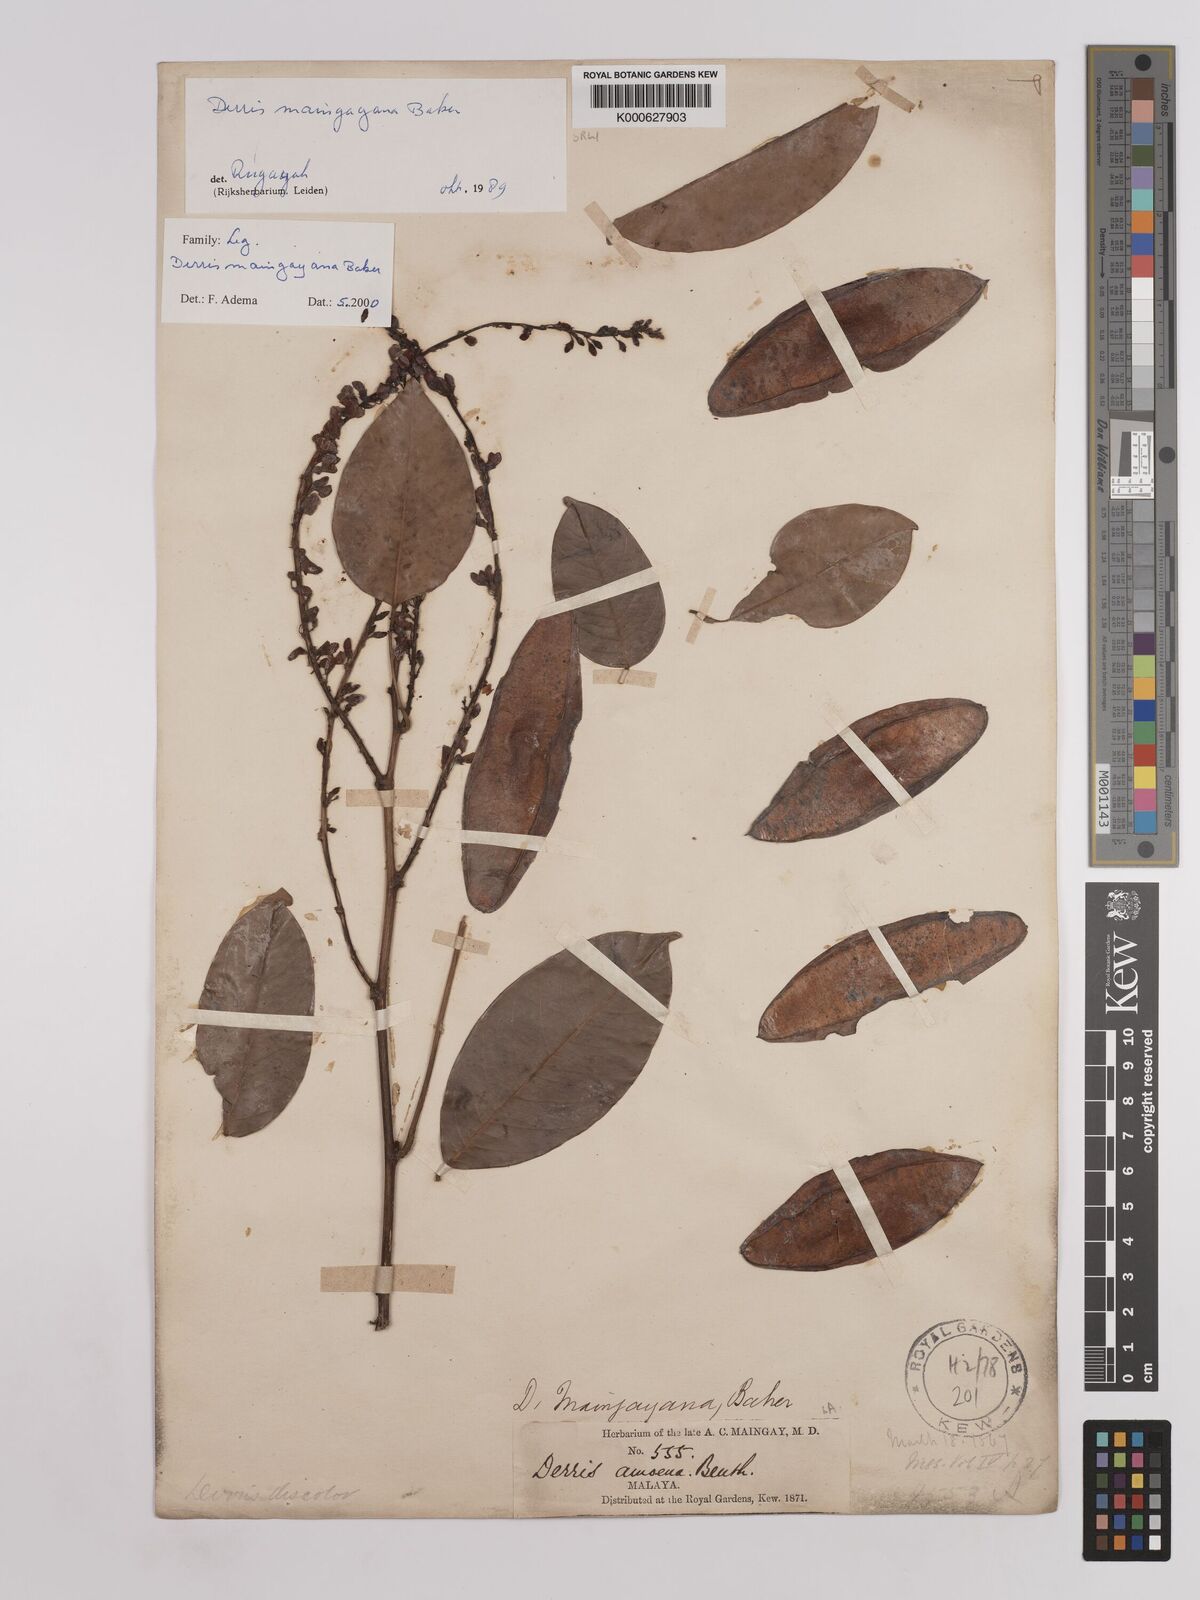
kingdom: Plantae
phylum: Tracheophyta
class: Magnoliopsida
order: Fabales
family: Fabaceae
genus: Derris
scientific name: Derris amoena
